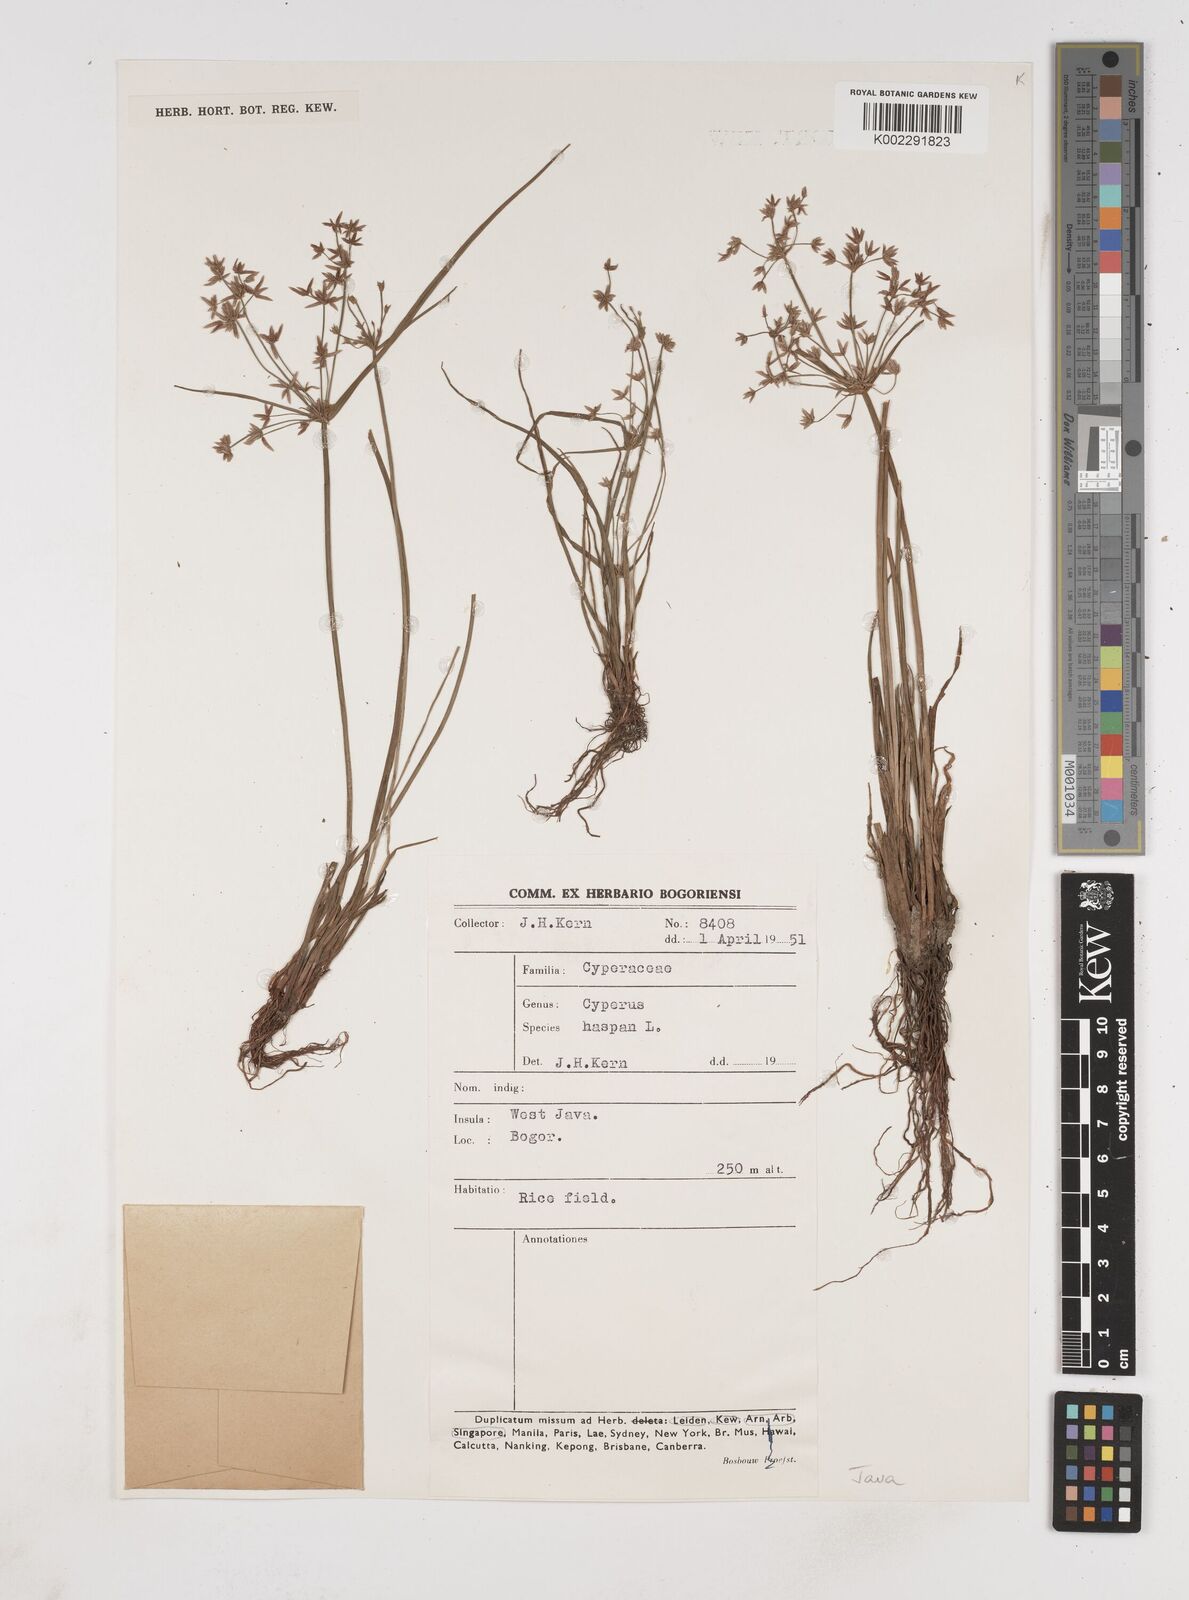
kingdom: Plantae
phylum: Tracheophyta
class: Liliopsida
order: Poales
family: Cyperaceae
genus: Cyperus
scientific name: Cyperus haspan
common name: Haspan flatsedge
